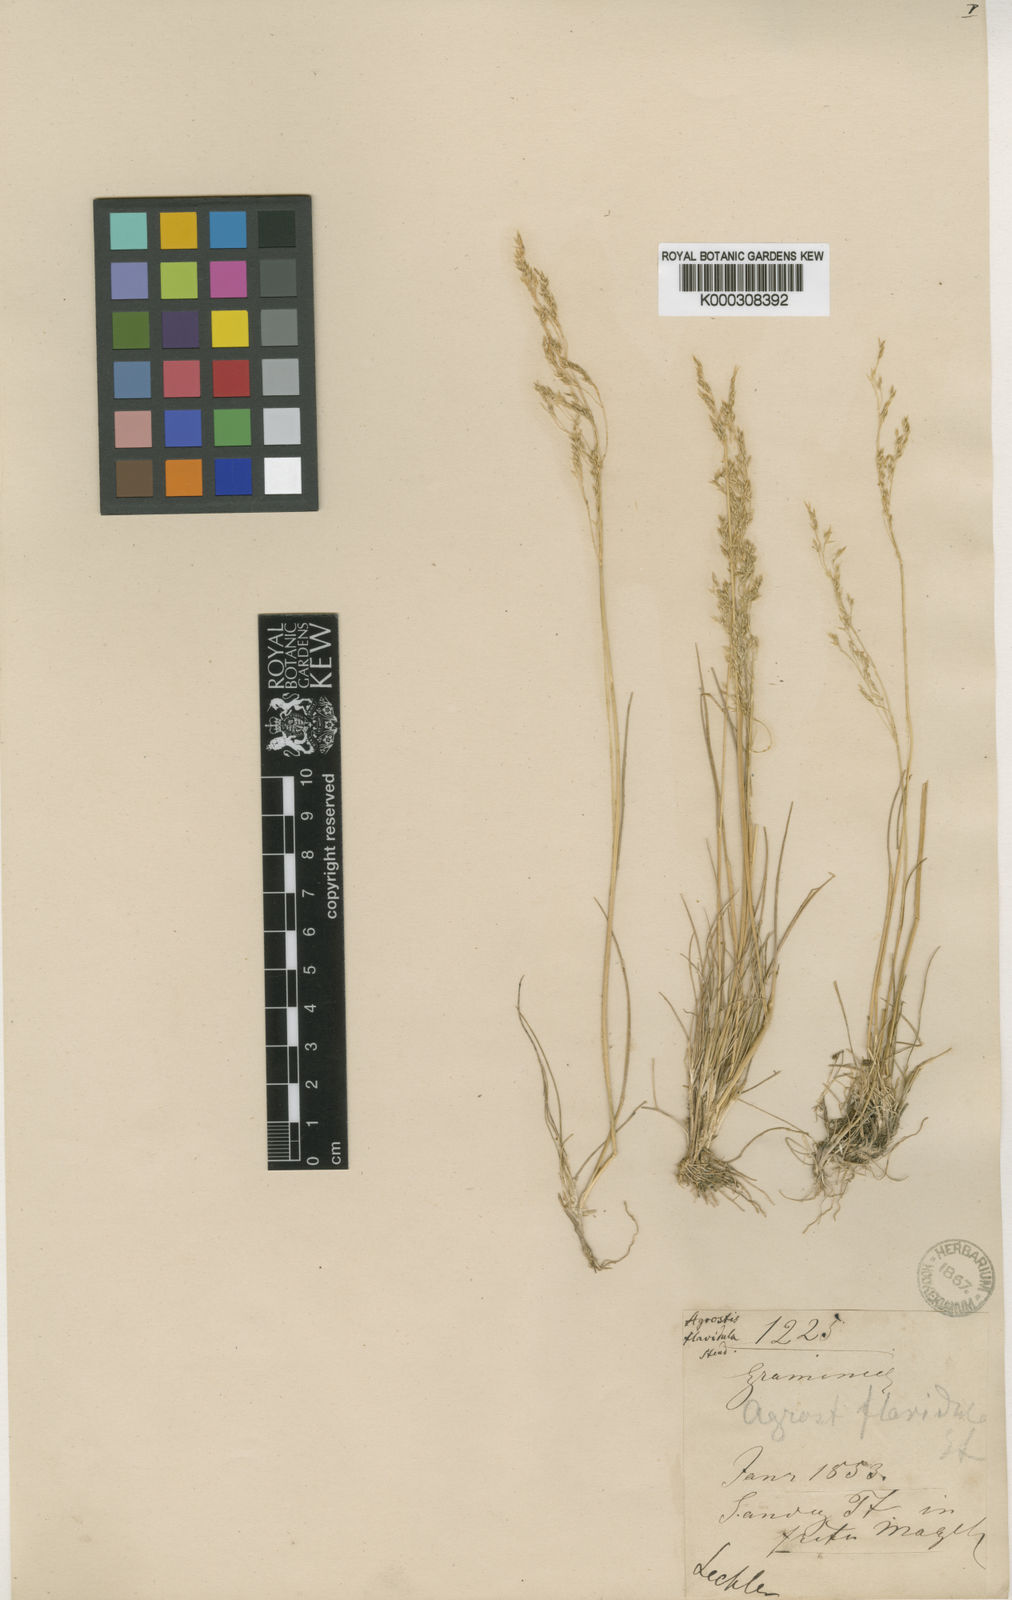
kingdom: Plantae
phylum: Tracheophyta
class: Liliopsida
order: Poales
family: Poaceae
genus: Agrostis
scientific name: Agrostis perennans
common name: Autumn bent
